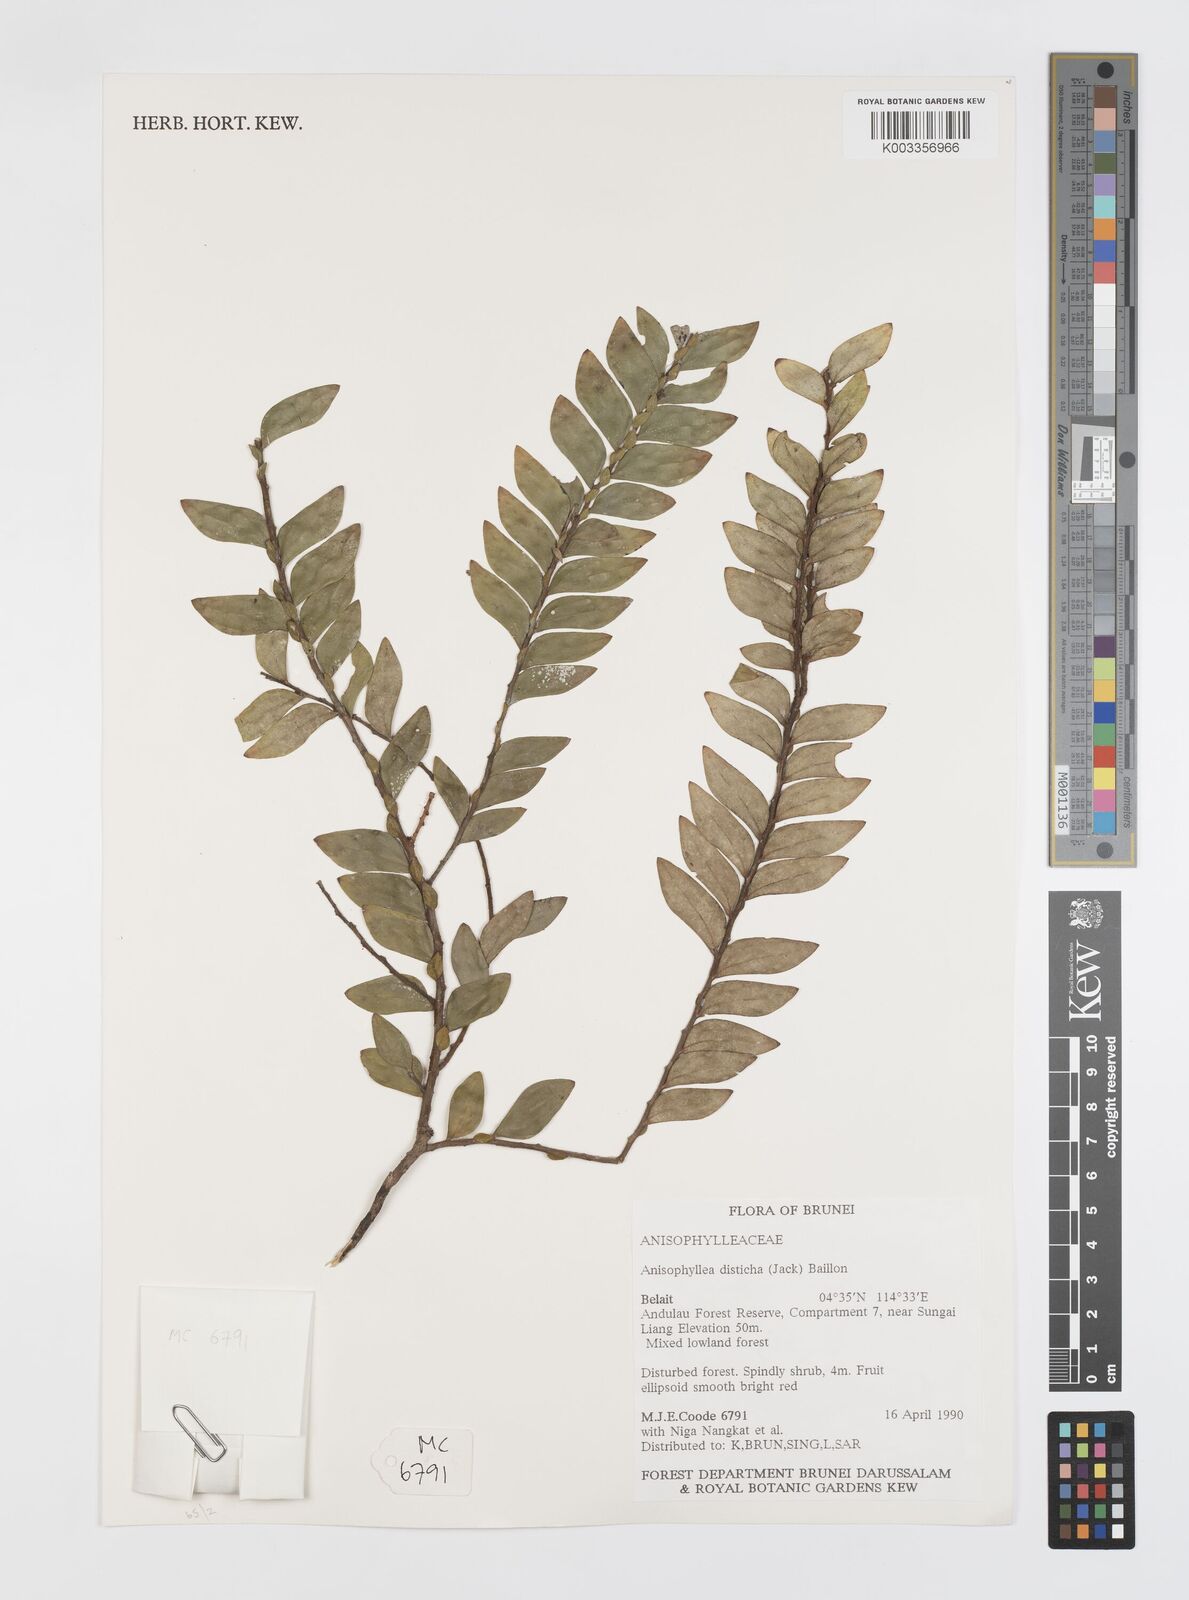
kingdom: Plantae
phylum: Tracheophyta
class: Magnoliopsida
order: Cucurbitales
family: Anisophylleaceae
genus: Anisophyllea
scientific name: Anisophyllea disticha
